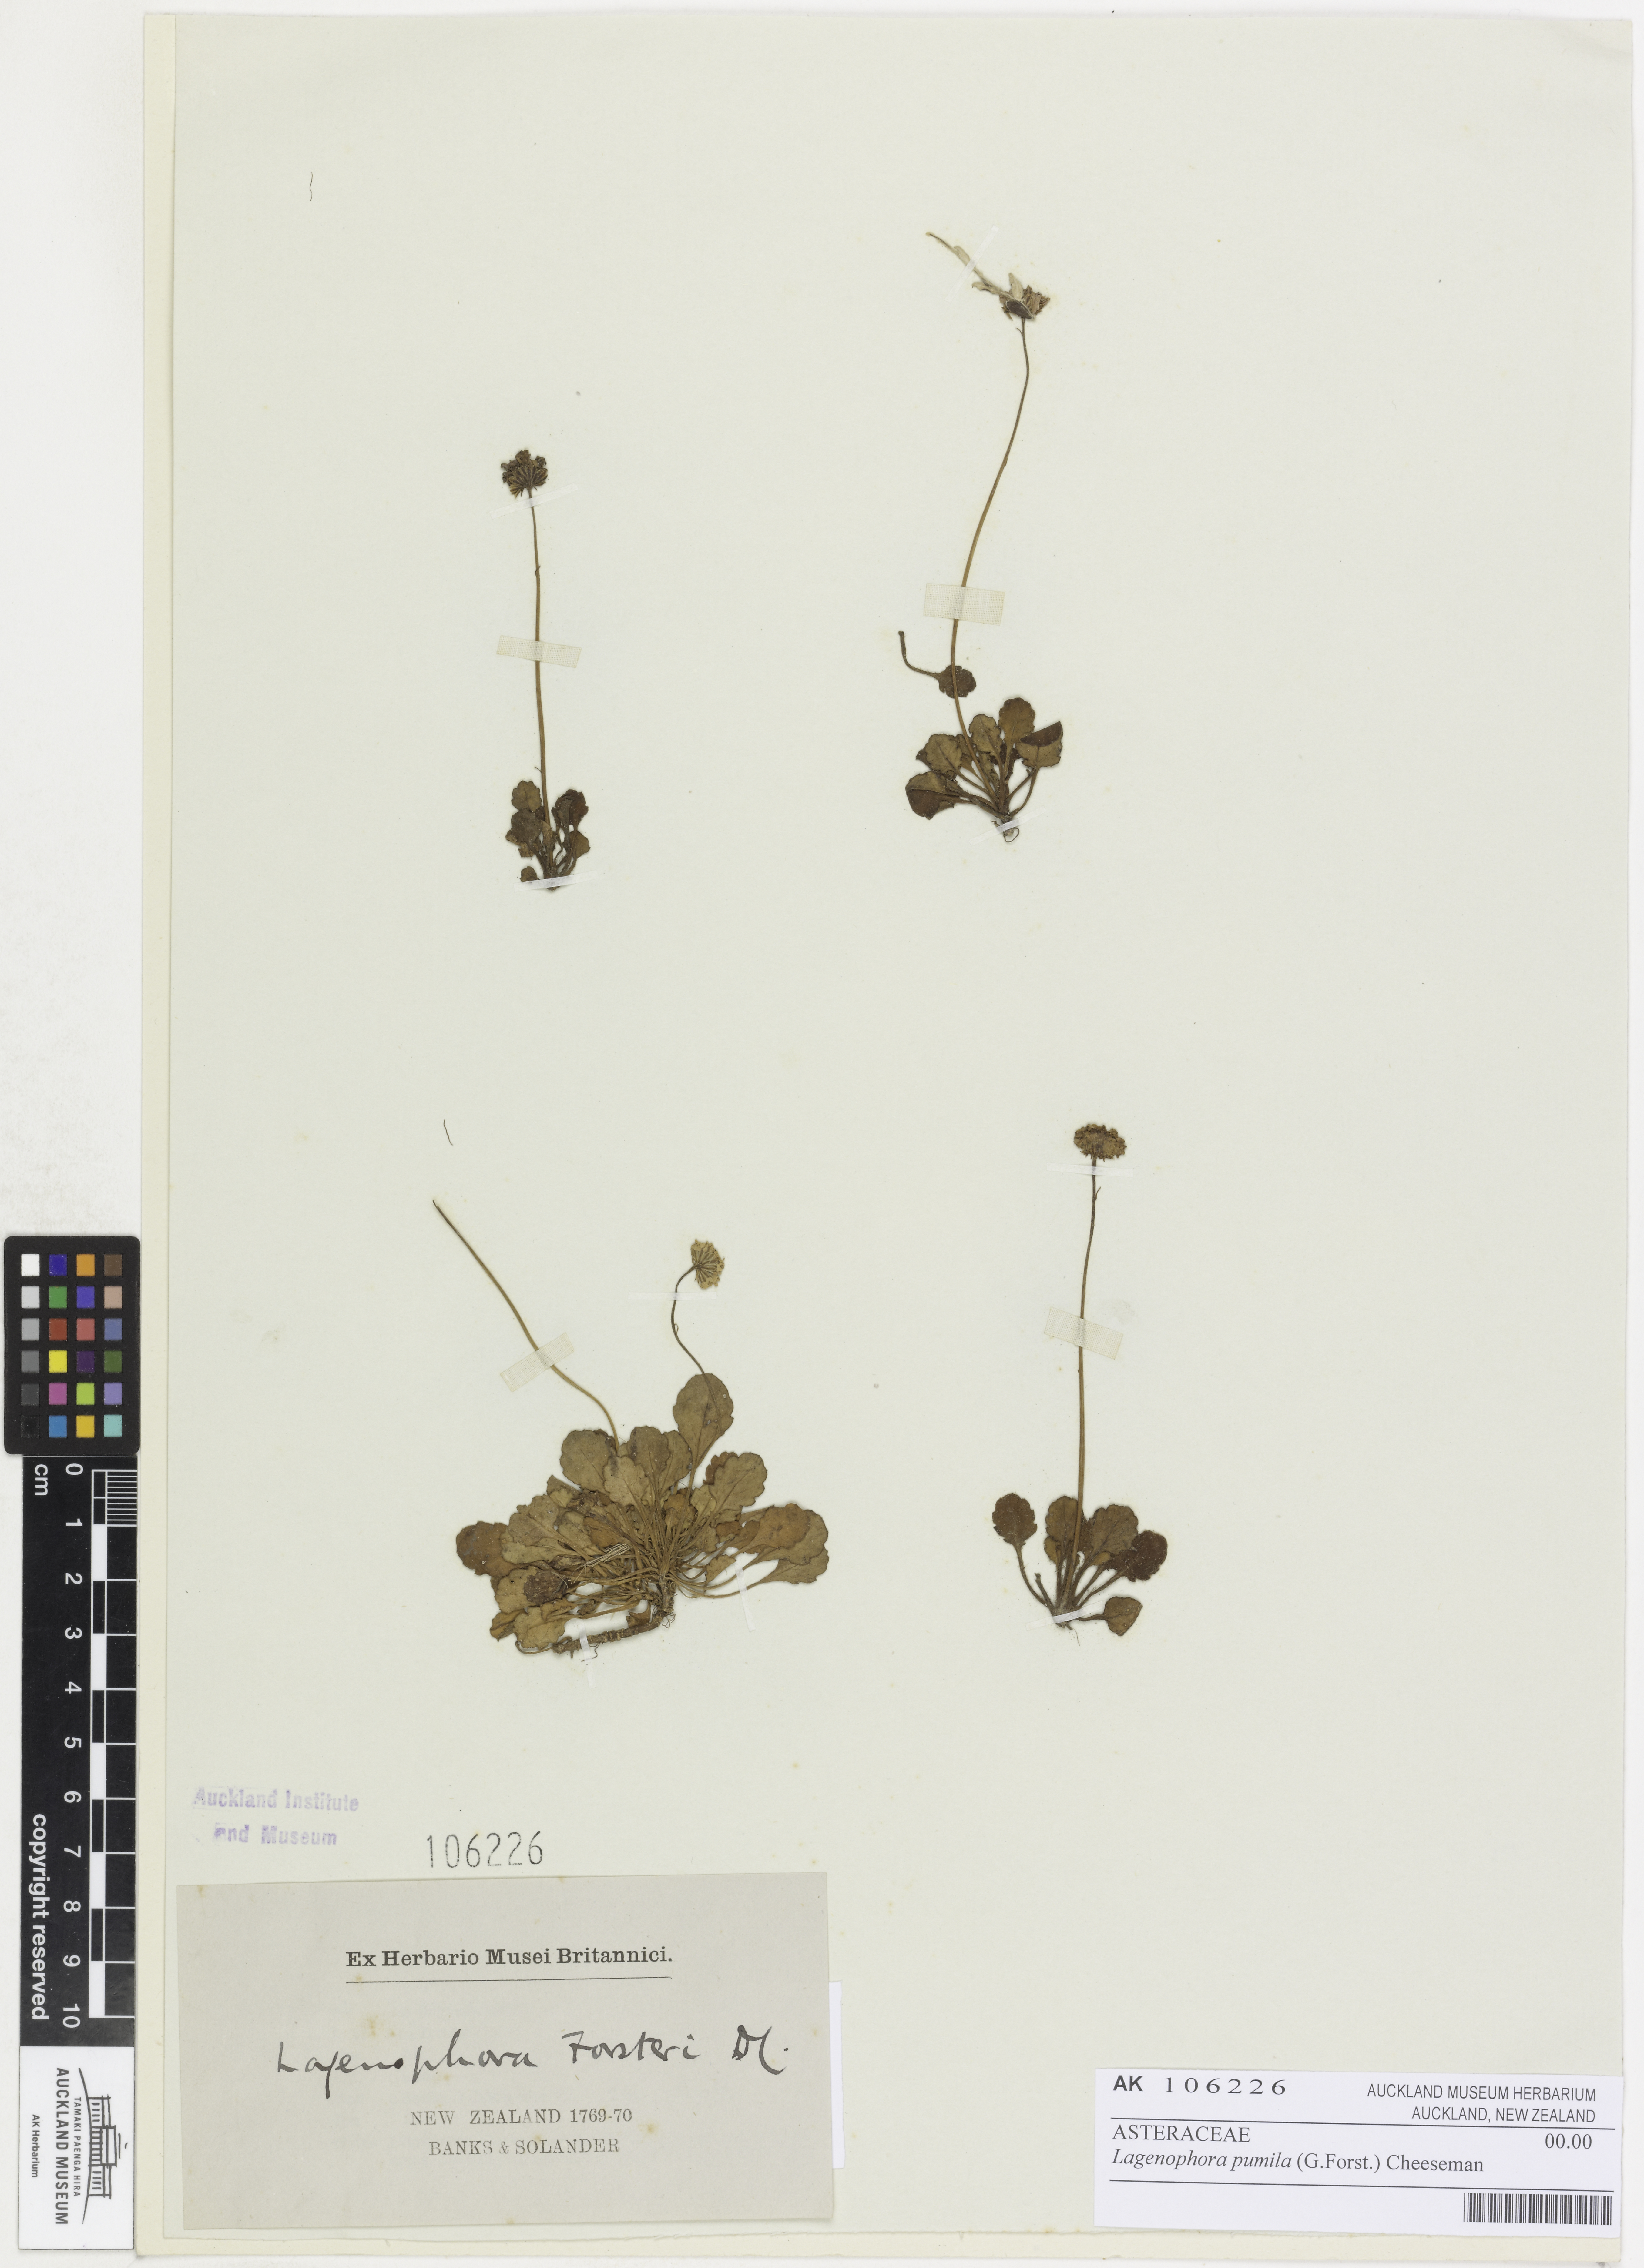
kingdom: Plantae
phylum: Tracheophyta
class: Magnoliopsida
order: Asterales
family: Asteraceae
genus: Lagenophora
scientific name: Lagenophora pumila
